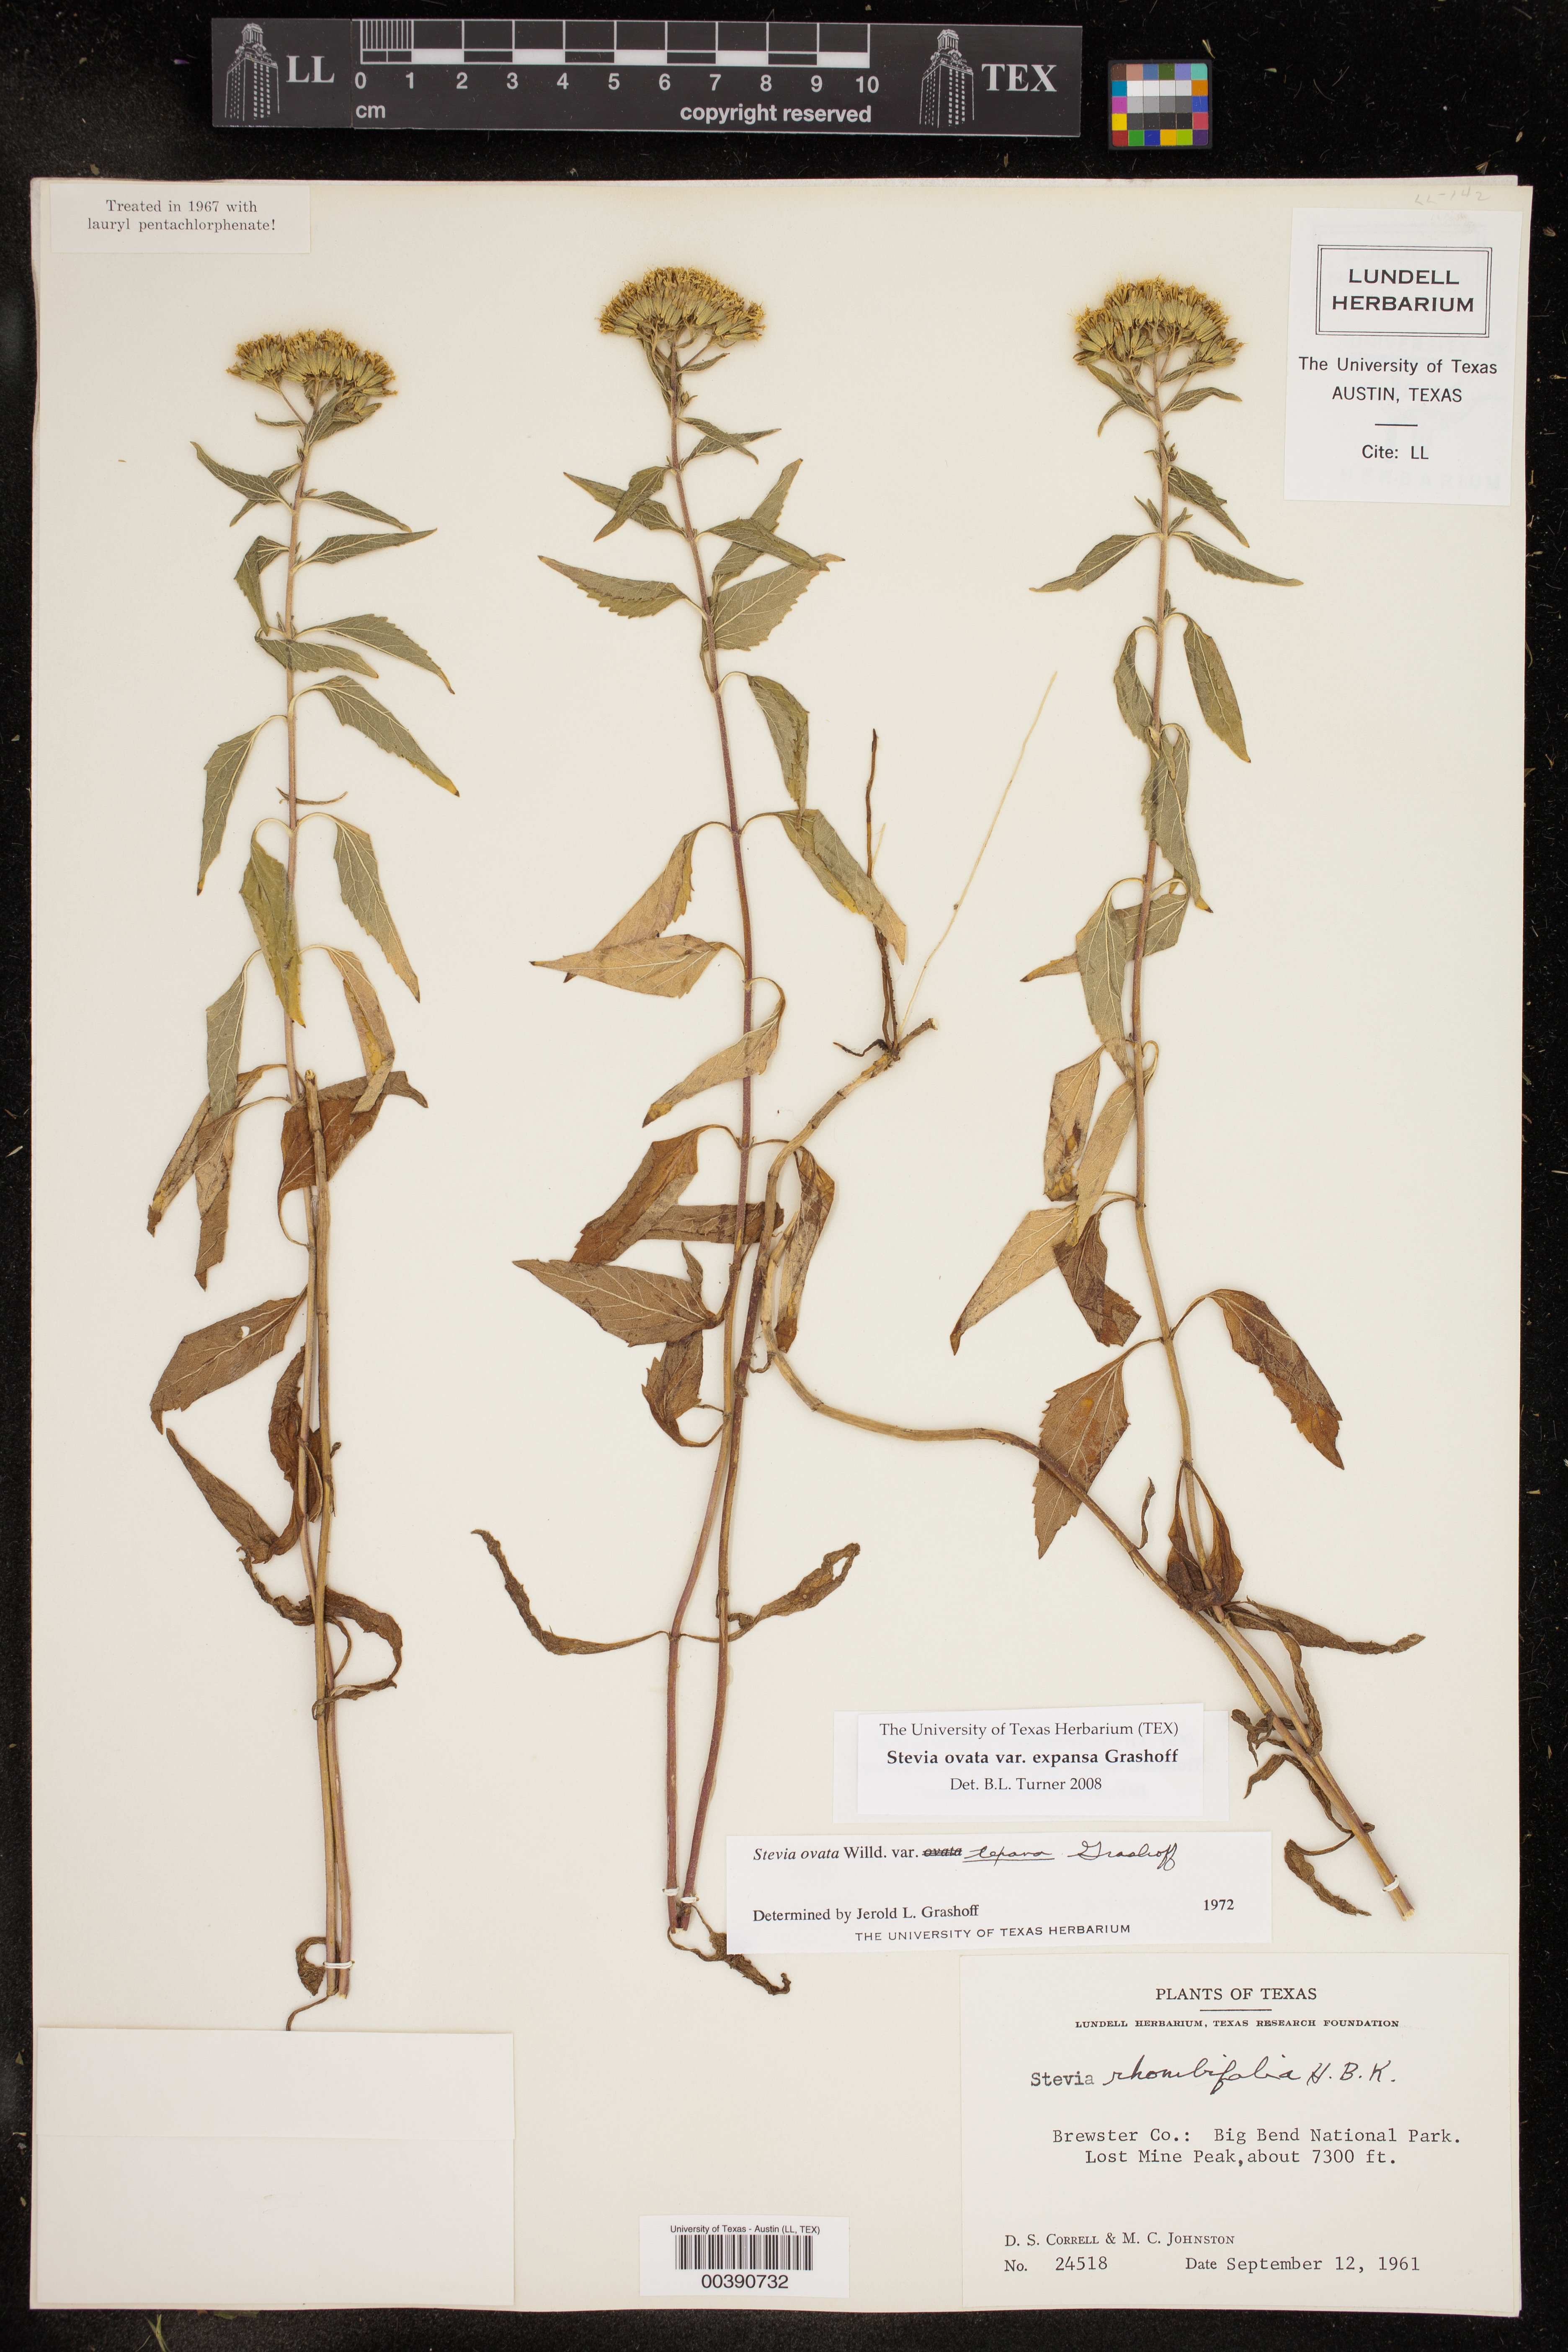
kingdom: Plantae
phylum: Tracheophyta
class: Magnoliopsida
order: Asterales
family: Asteraceae
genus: Stevia
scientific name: Stevia ovata
